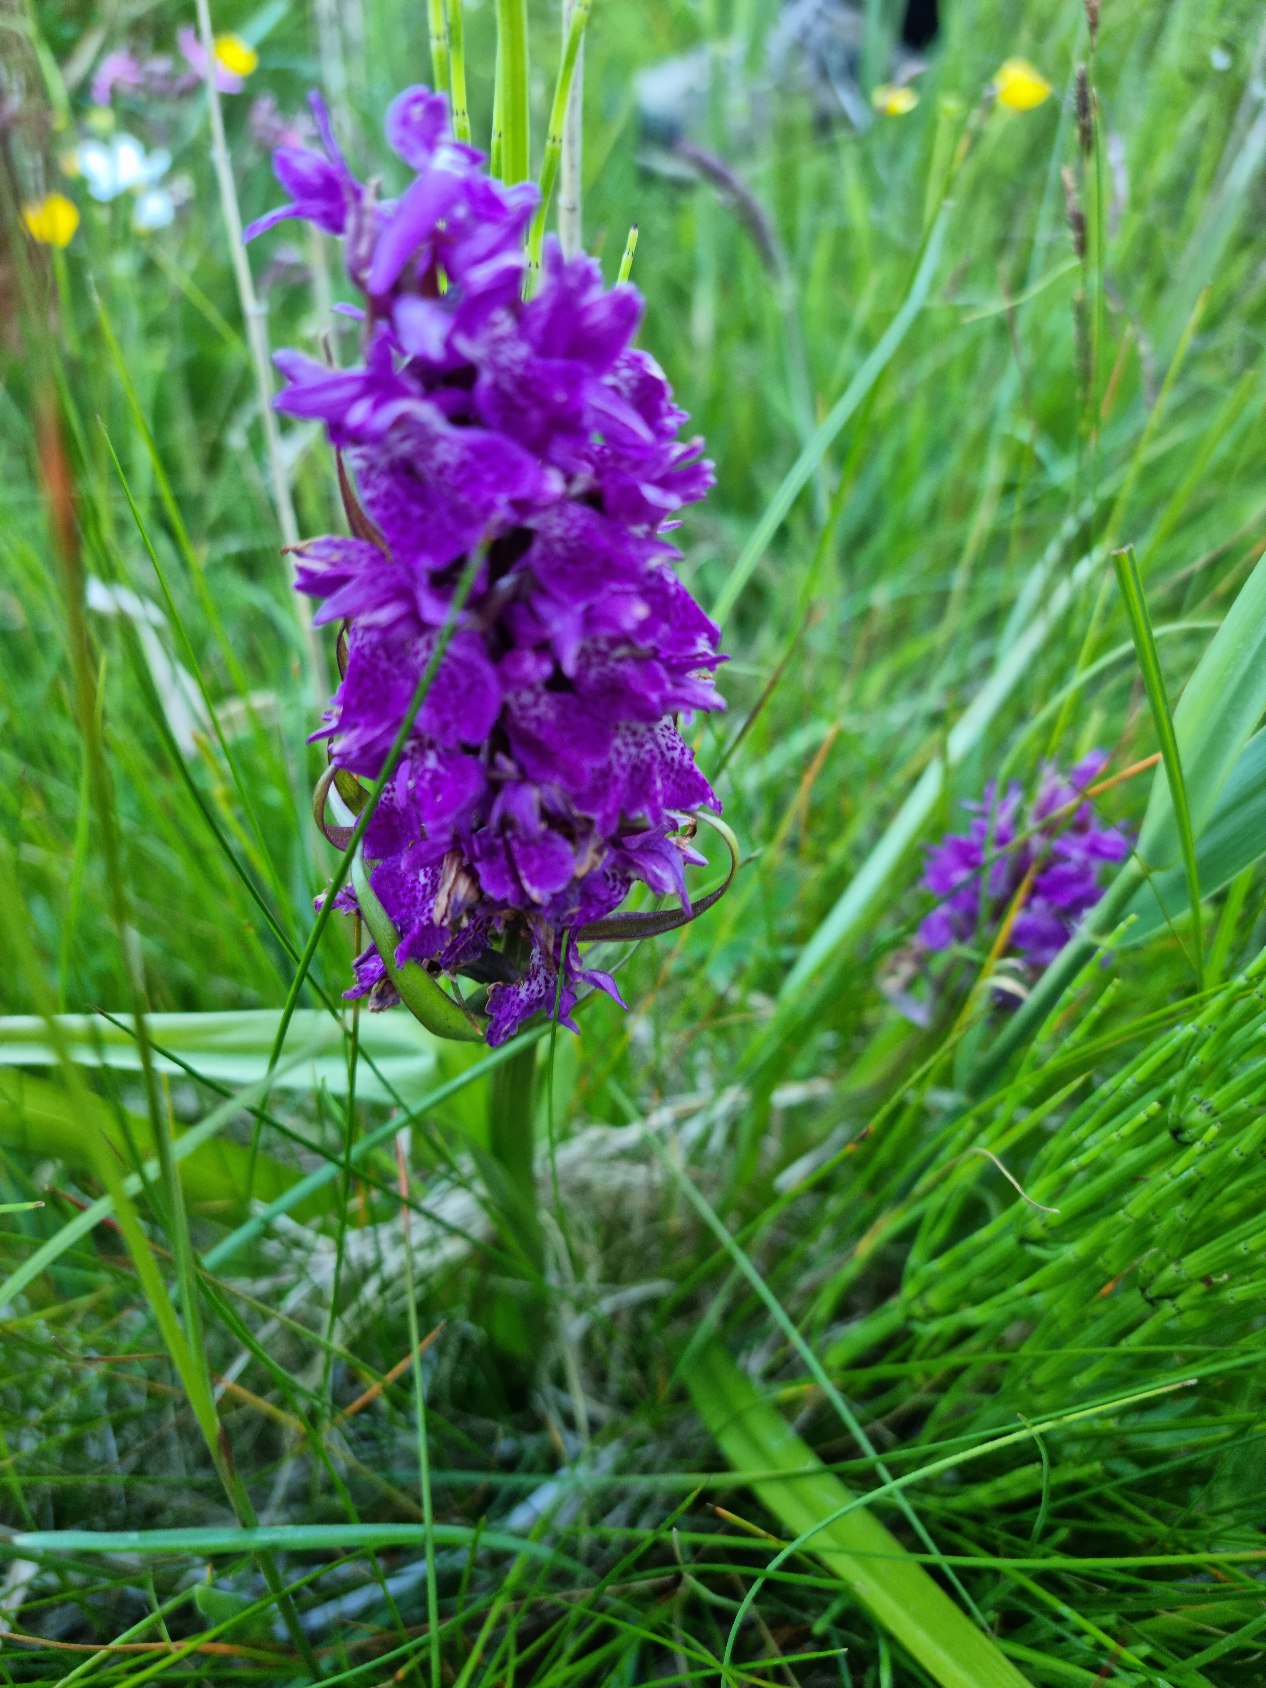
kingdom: Plantae
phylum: Tracheophyta
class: Liliopsida
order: Asparagales
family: Orchidaceae
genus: Dactylorhiza
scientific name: Dactylorhiza majalis
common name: Maj-gøgeurt
